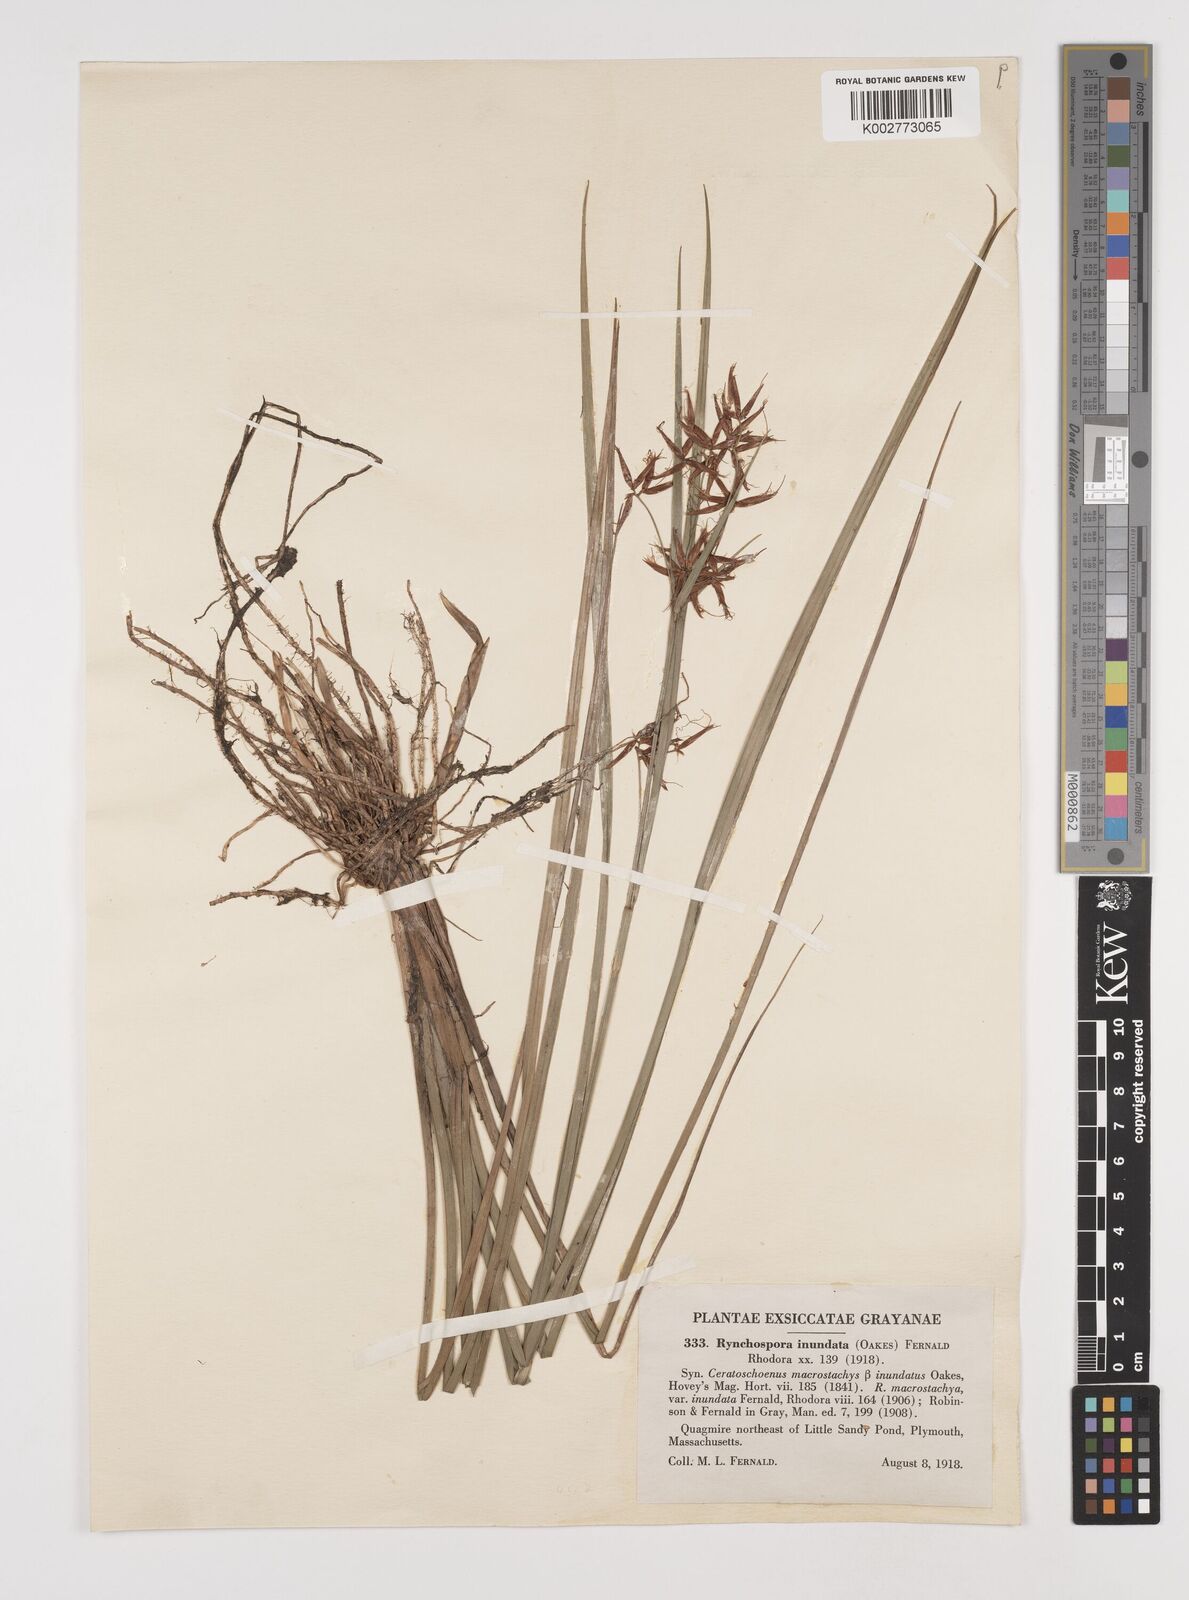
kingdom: Plantae
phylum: Tracheophyta
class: Liliopsida
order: Poales
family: Cyperaceae
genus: Rhynchospora
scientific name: Rhynchospora inundata
